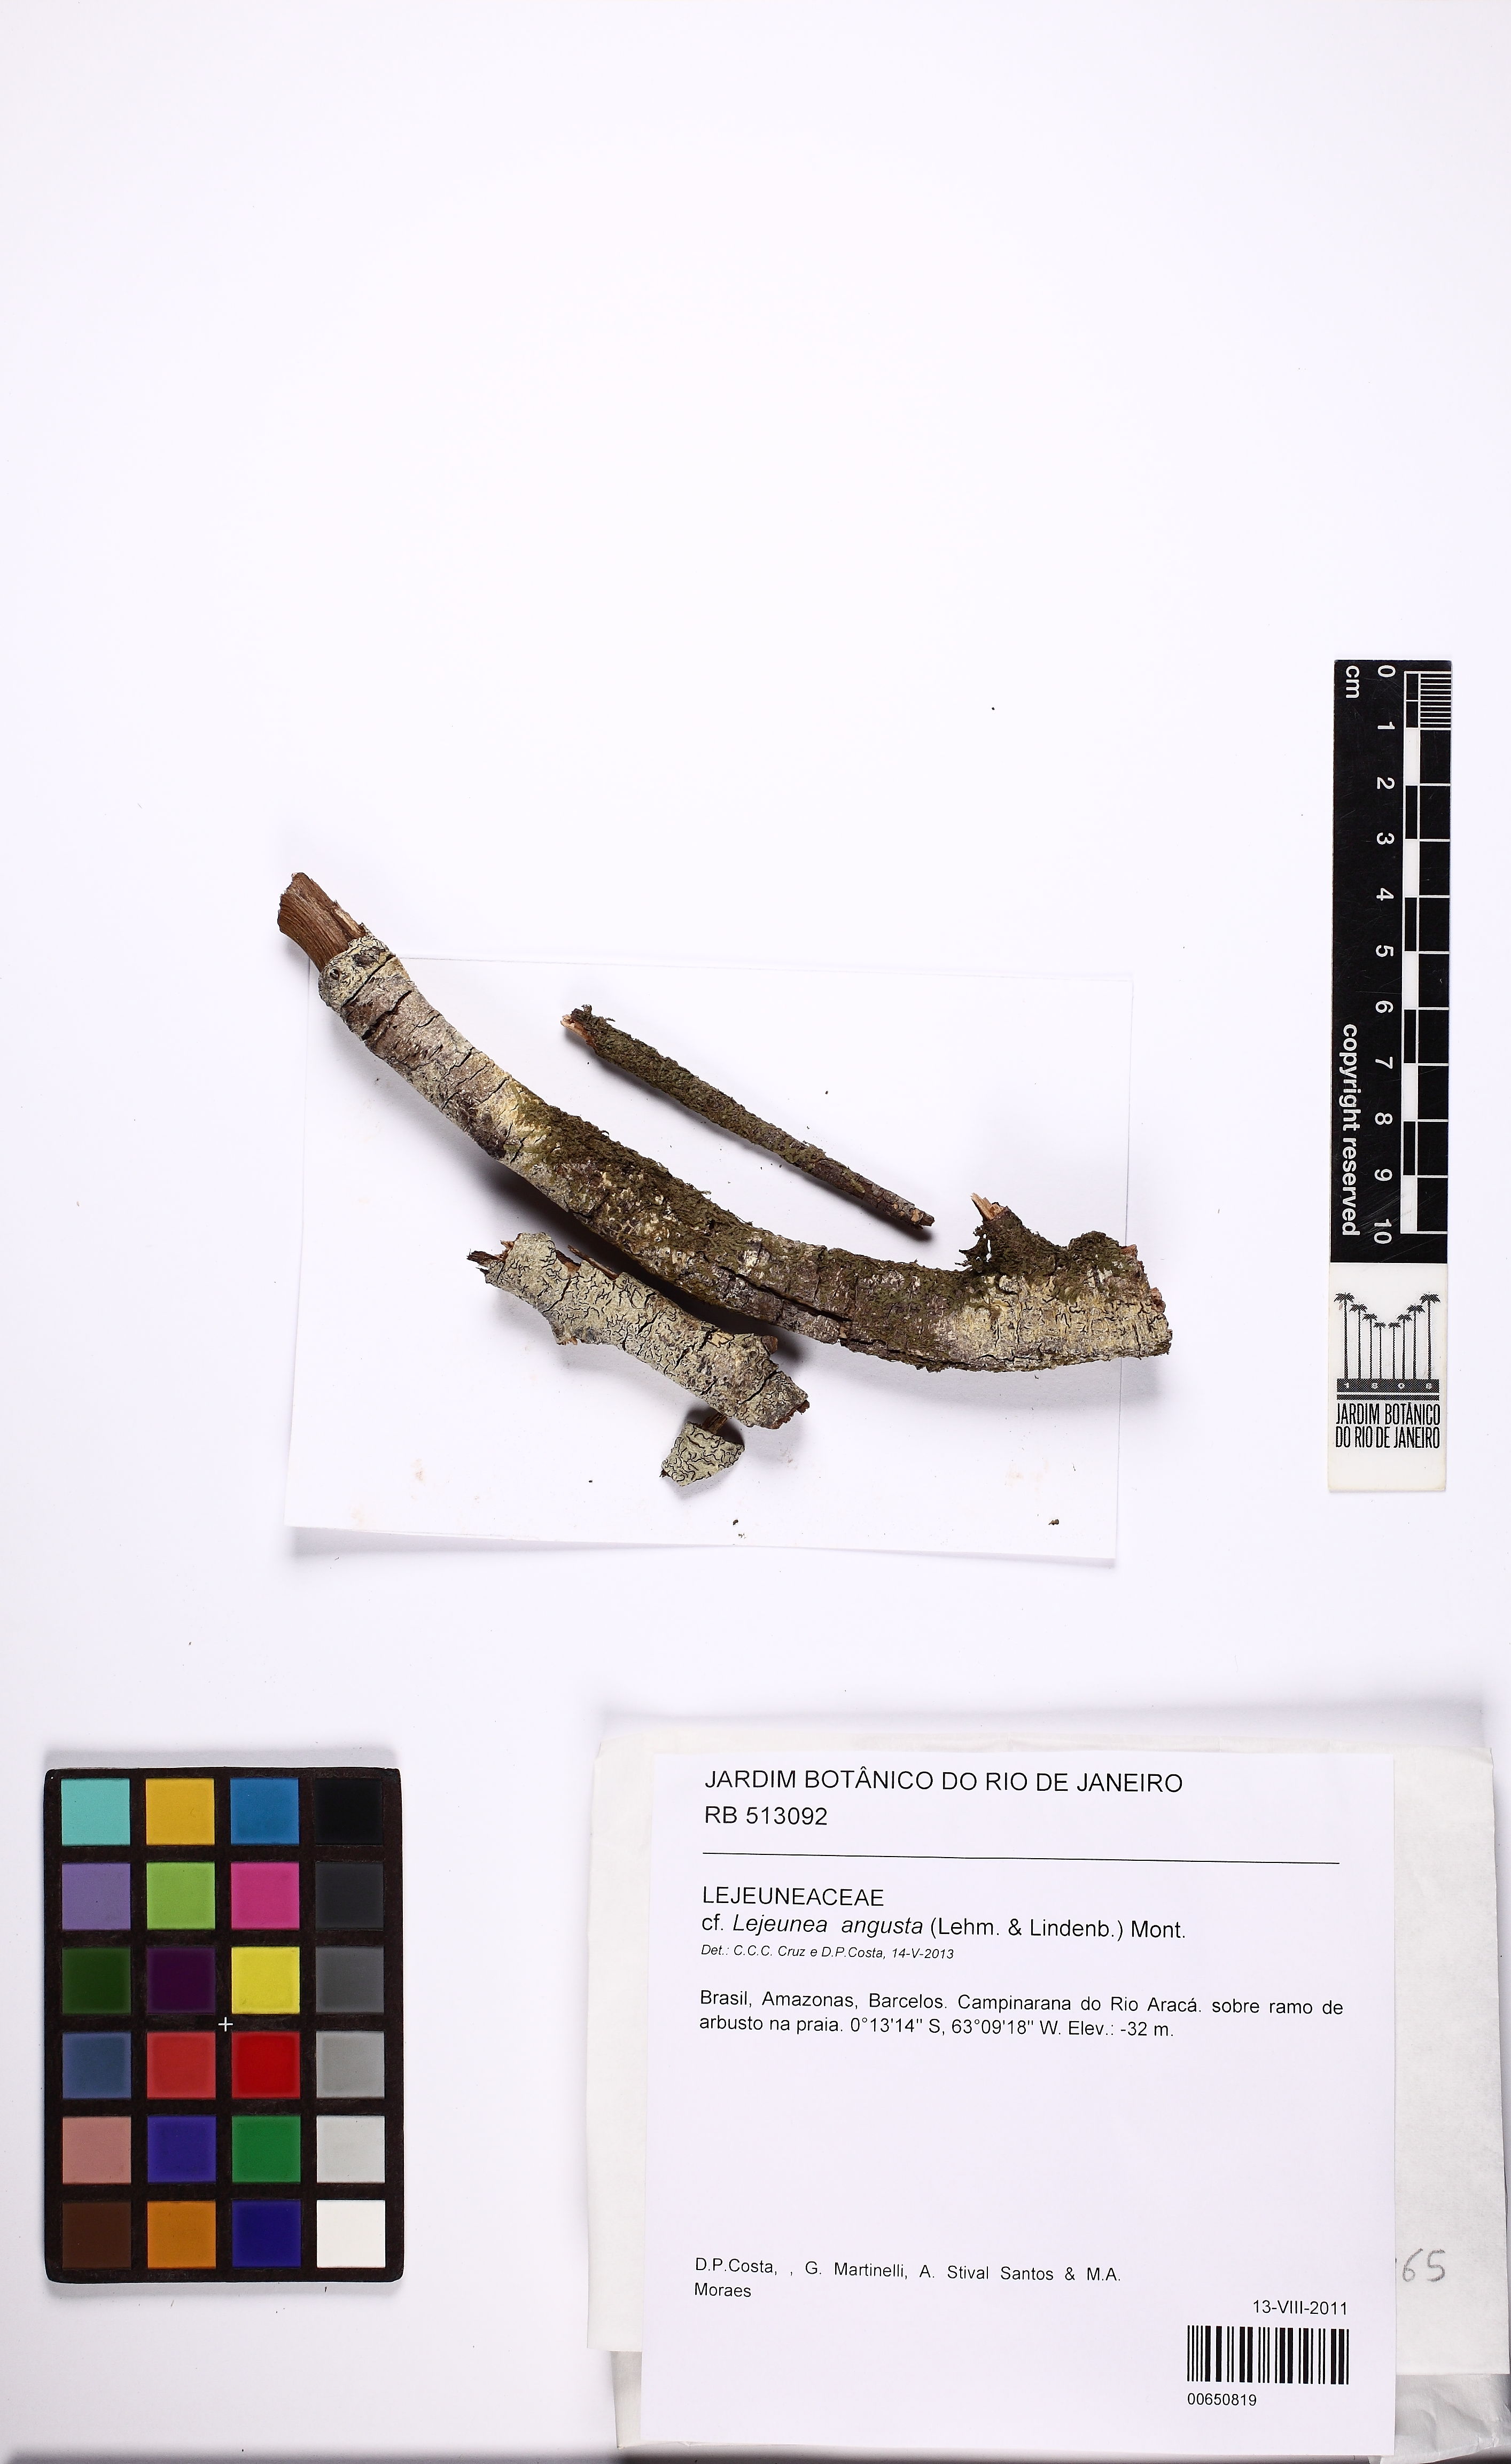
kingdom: Plantae
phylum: Marchantiophyta
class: Jungermanniopsida
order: Porellales
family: Lejeuneaceae
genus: Lejeunea
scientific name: Lejeunea angusta
